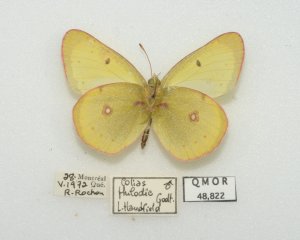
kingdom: Animalia
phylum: Arthropoda
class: Insecta
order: Lepidoptera
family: Pieridae
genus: Colias
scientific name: Colias philodice
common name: Clouded Sulphur
